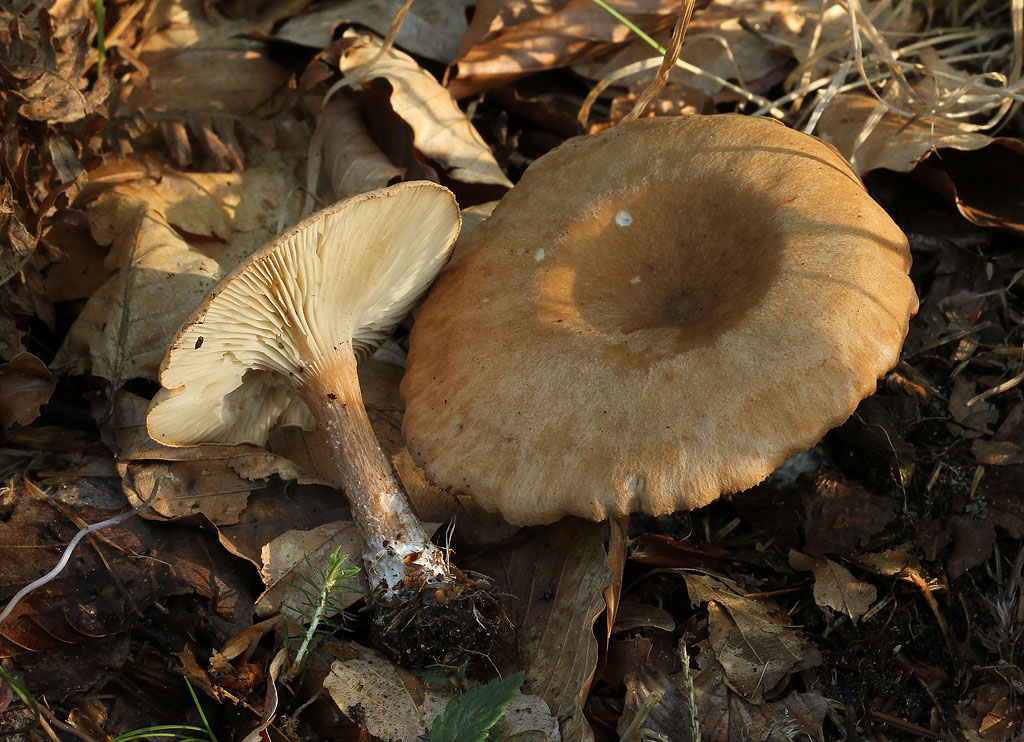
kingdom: Fungi
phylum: Basidiomycota
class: Agaricomycetes
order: Agaricales
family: Tricholomataceae
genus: Clitocybe
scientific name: Clitocybe costata
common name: brunstokket tragthat
